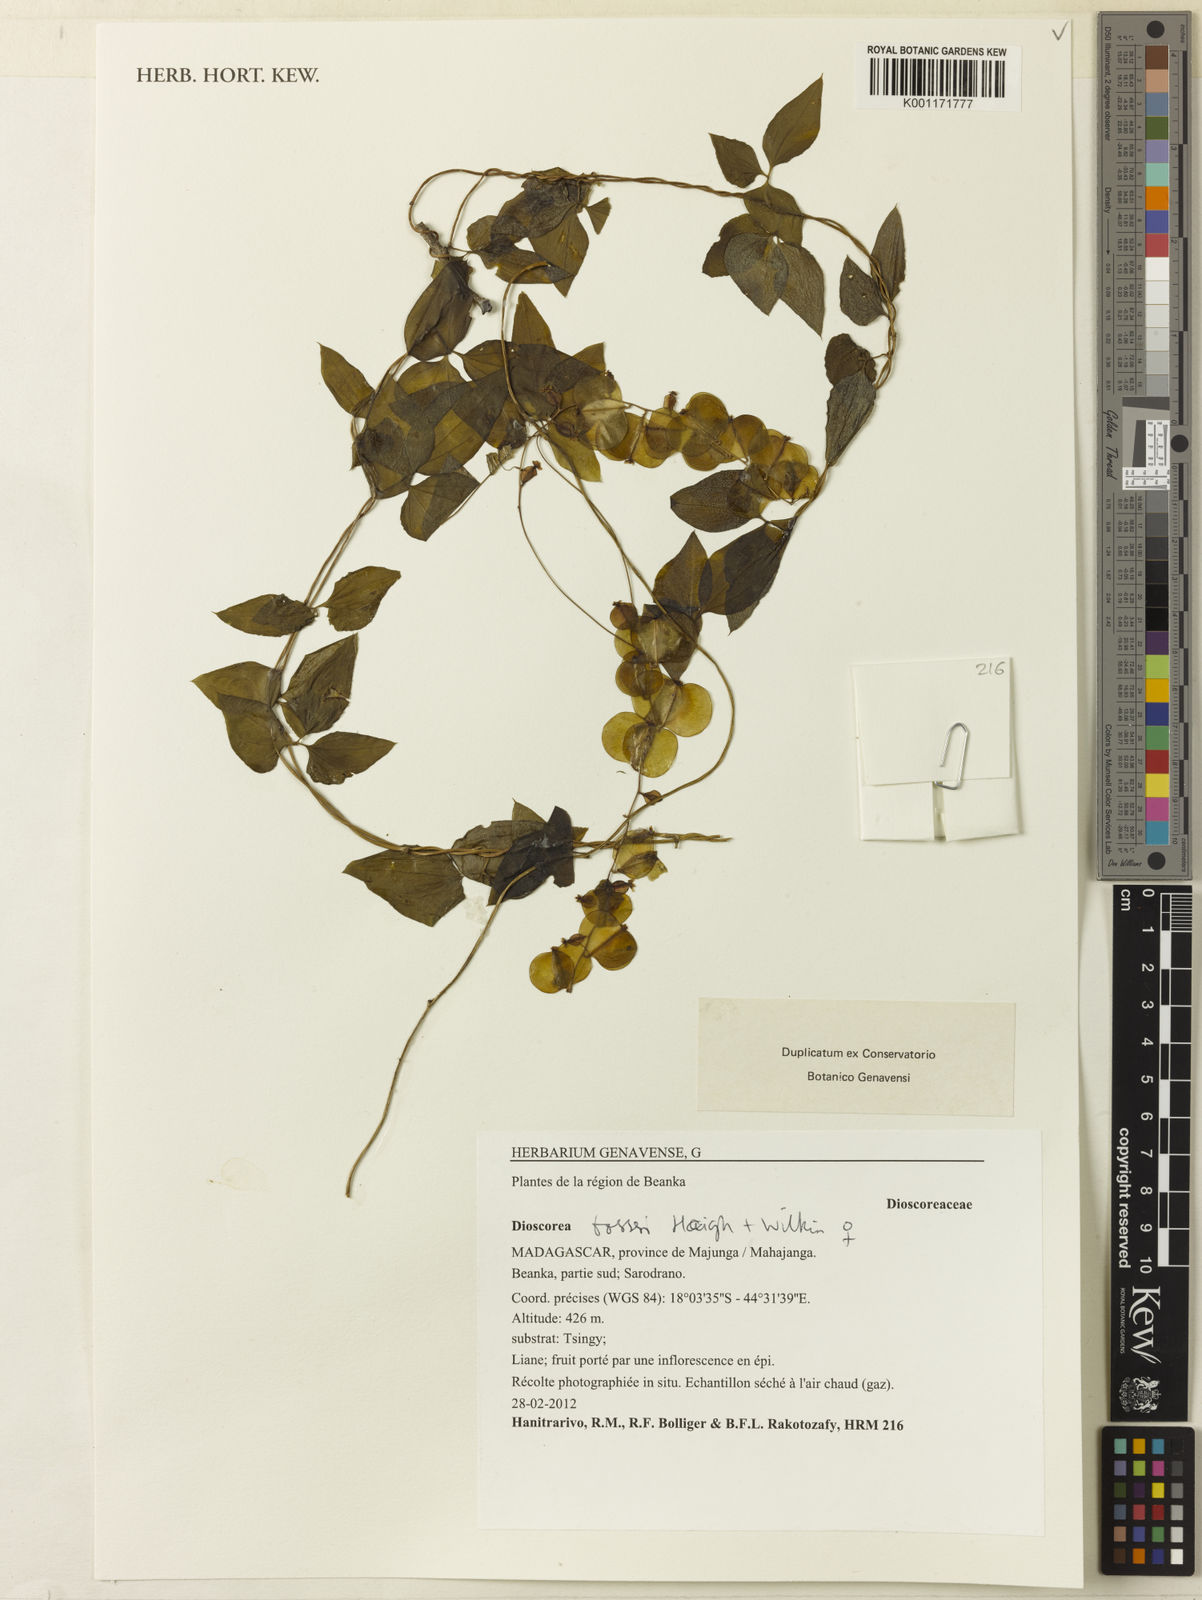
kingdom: Plantae
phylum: Tracheophyta
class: Liliopsida
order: Dioscoreales
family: Dioscoreaceae
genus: Dioscorea
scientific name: Dioscorea bosseri
